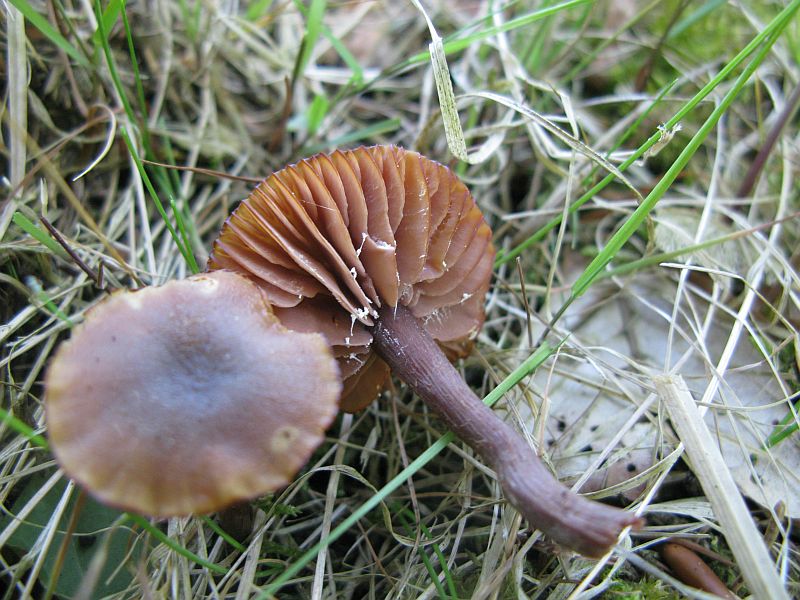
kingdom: Fungi
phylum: Basidiomycota
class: Agaricomycetes
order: Agaricales
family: Hydnangiaceae
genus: Laccaria
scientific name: Laccaria laccata
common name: rød ametysthat
